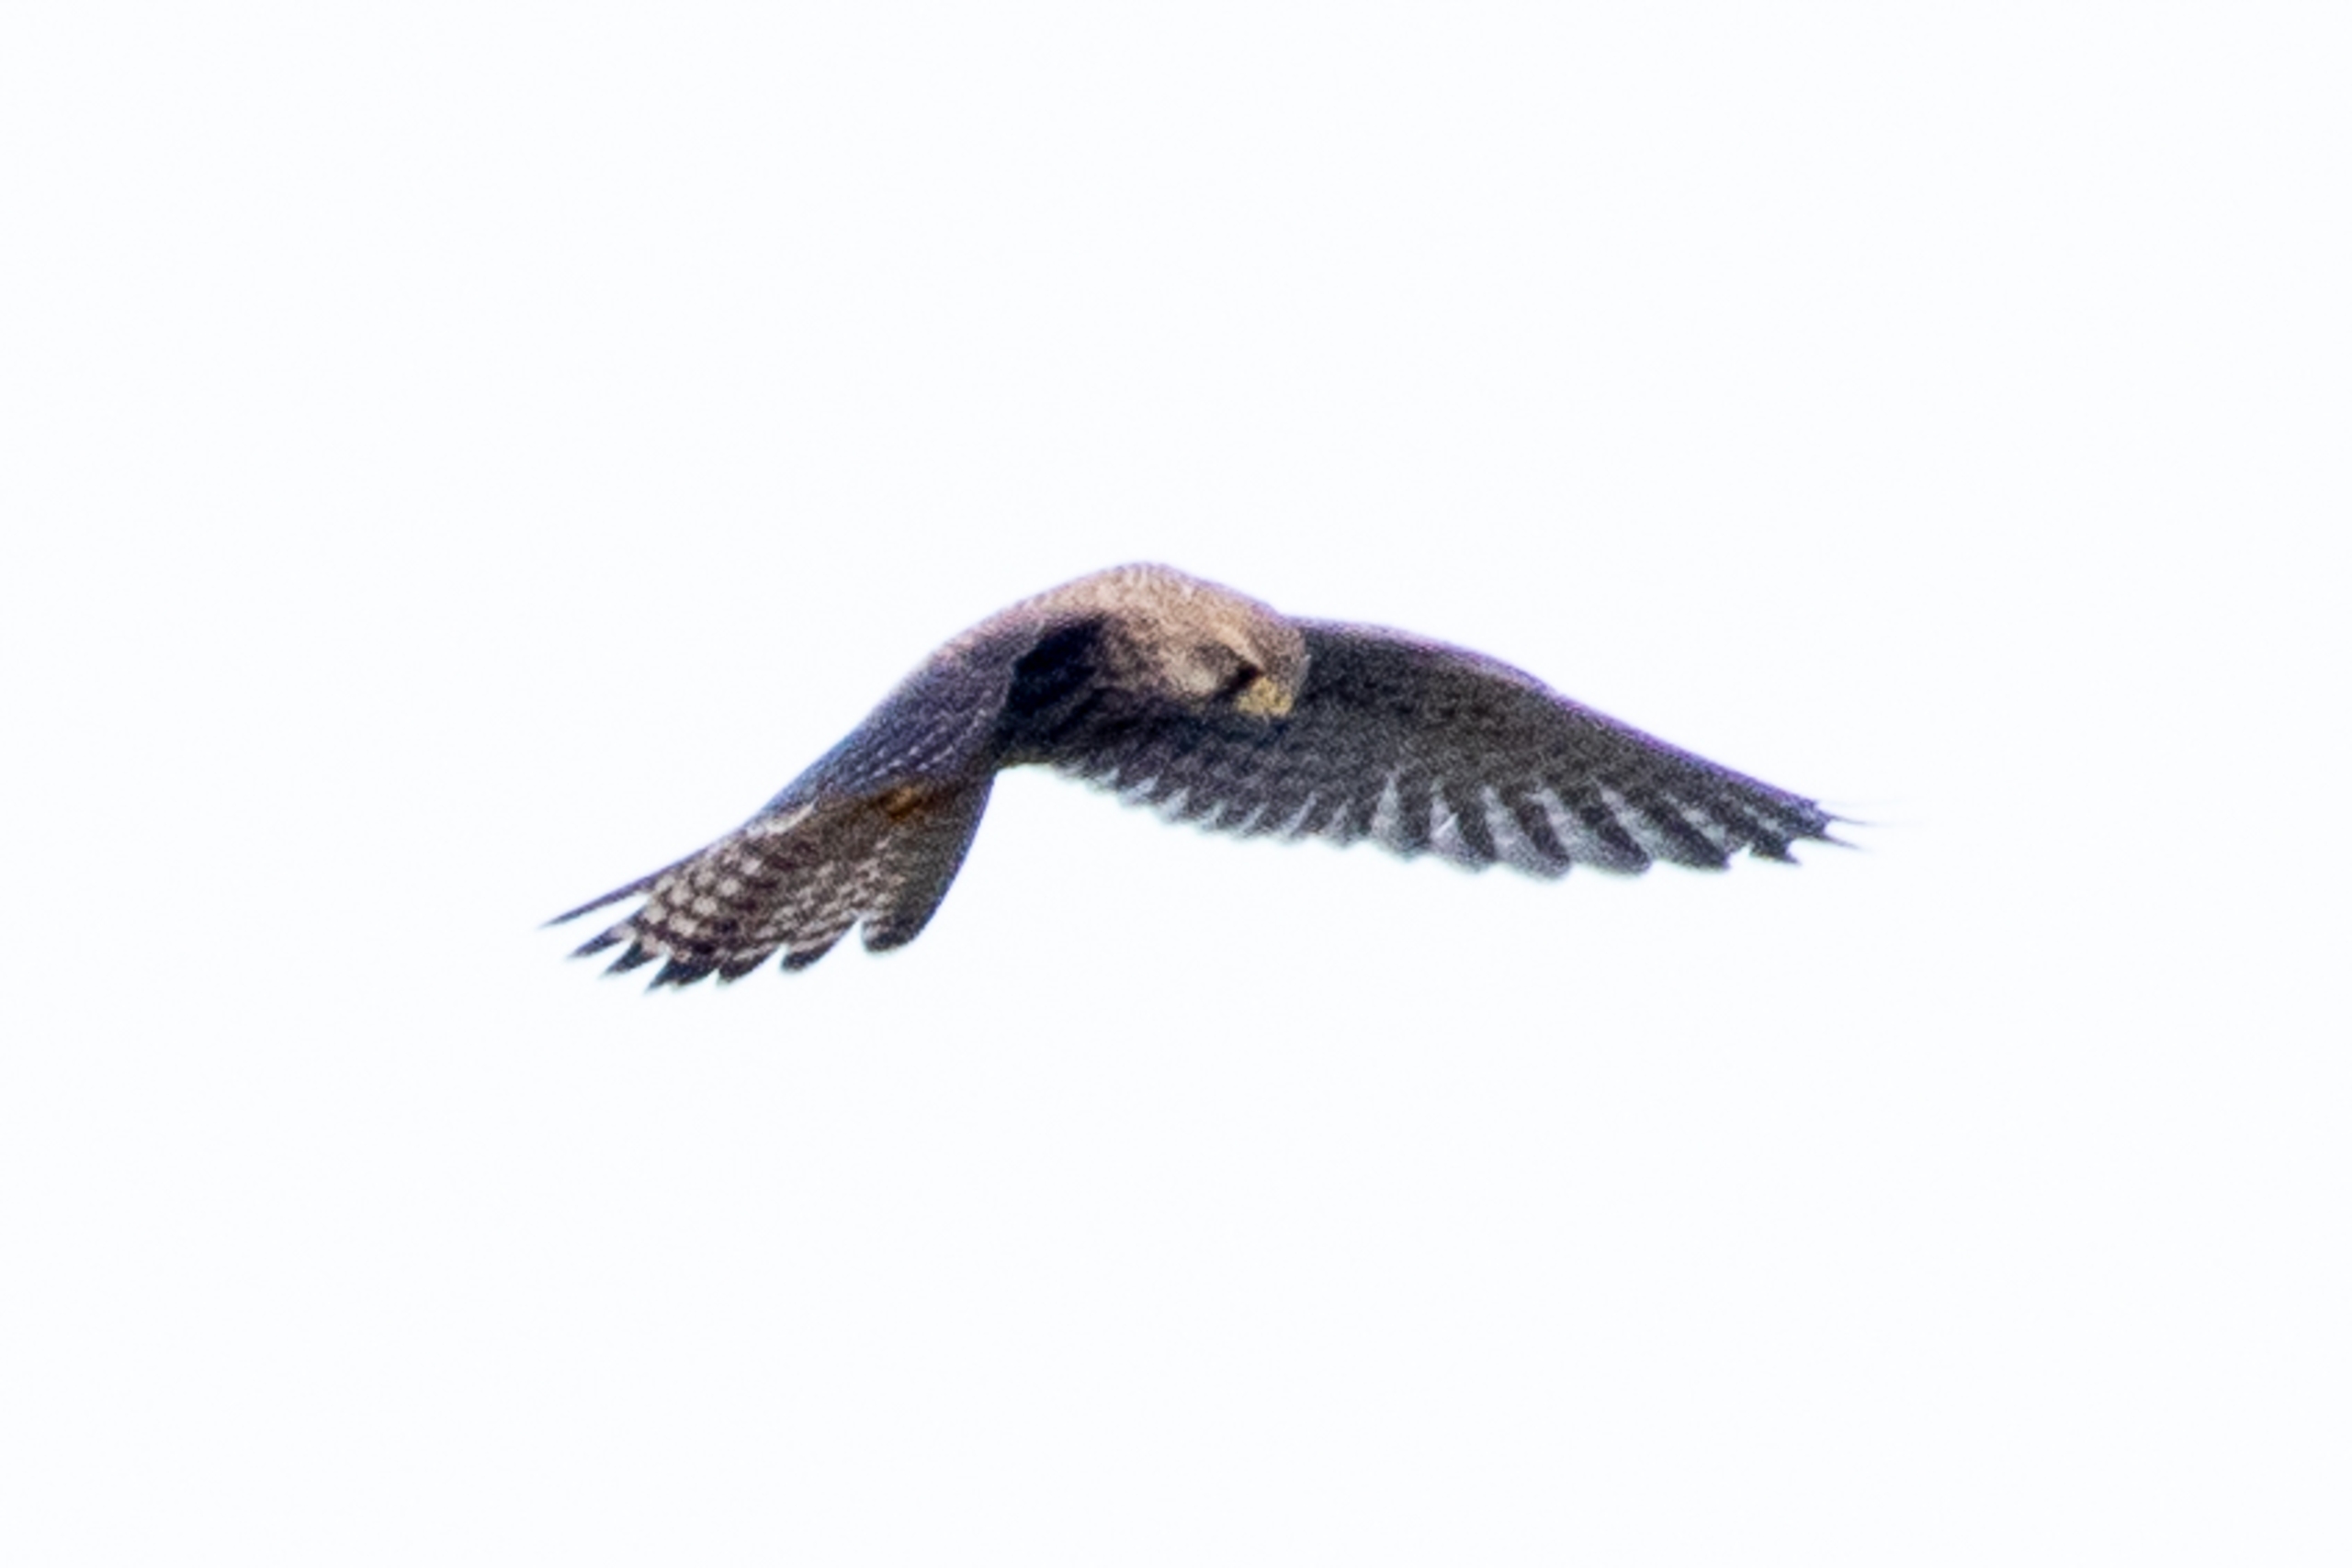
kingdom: Animalia
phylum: Chordata
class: Aves
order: Falconiformes
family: Falconidae
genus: Falco
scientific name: Falco tinnunculus
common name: Tårnfalk
